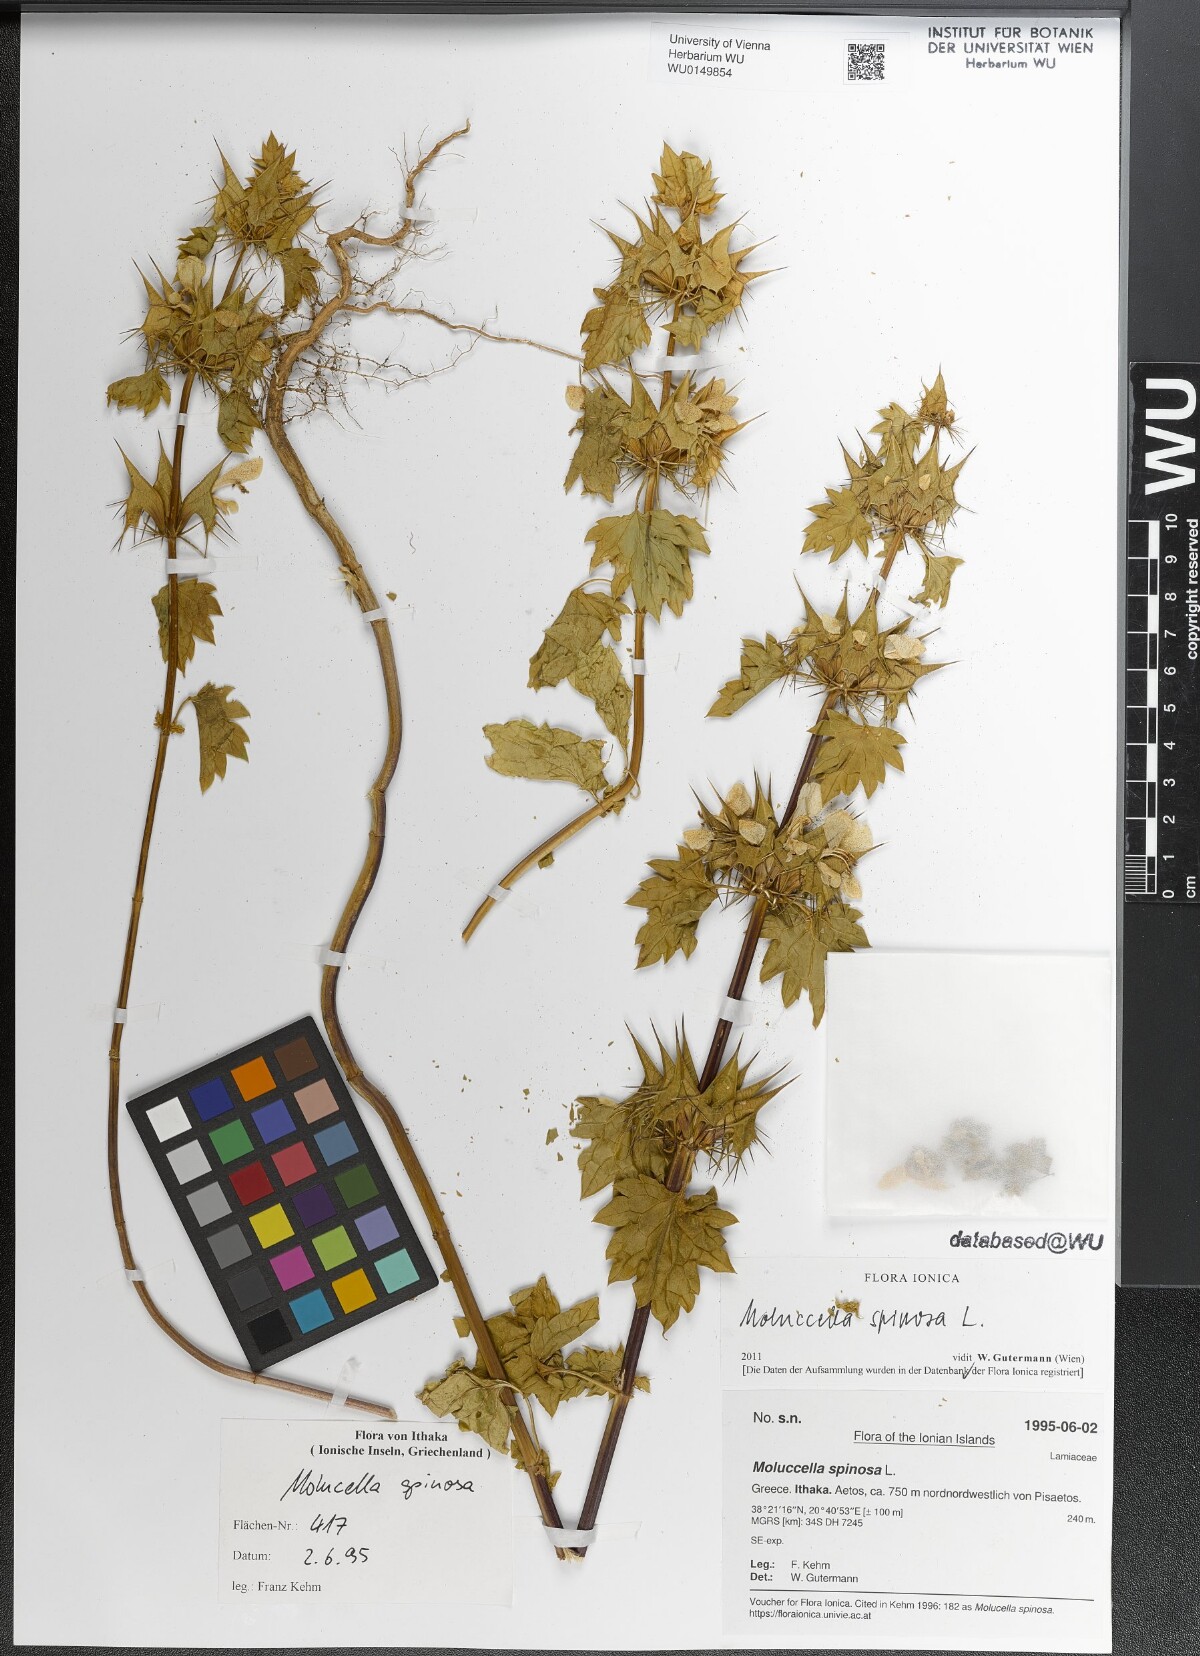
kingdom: Plantae
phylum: Tracheophyta
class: Magnoliopsida
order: Lamiales
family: Lamiaceae
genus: Moluccella
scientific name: Moluccella spinosa
